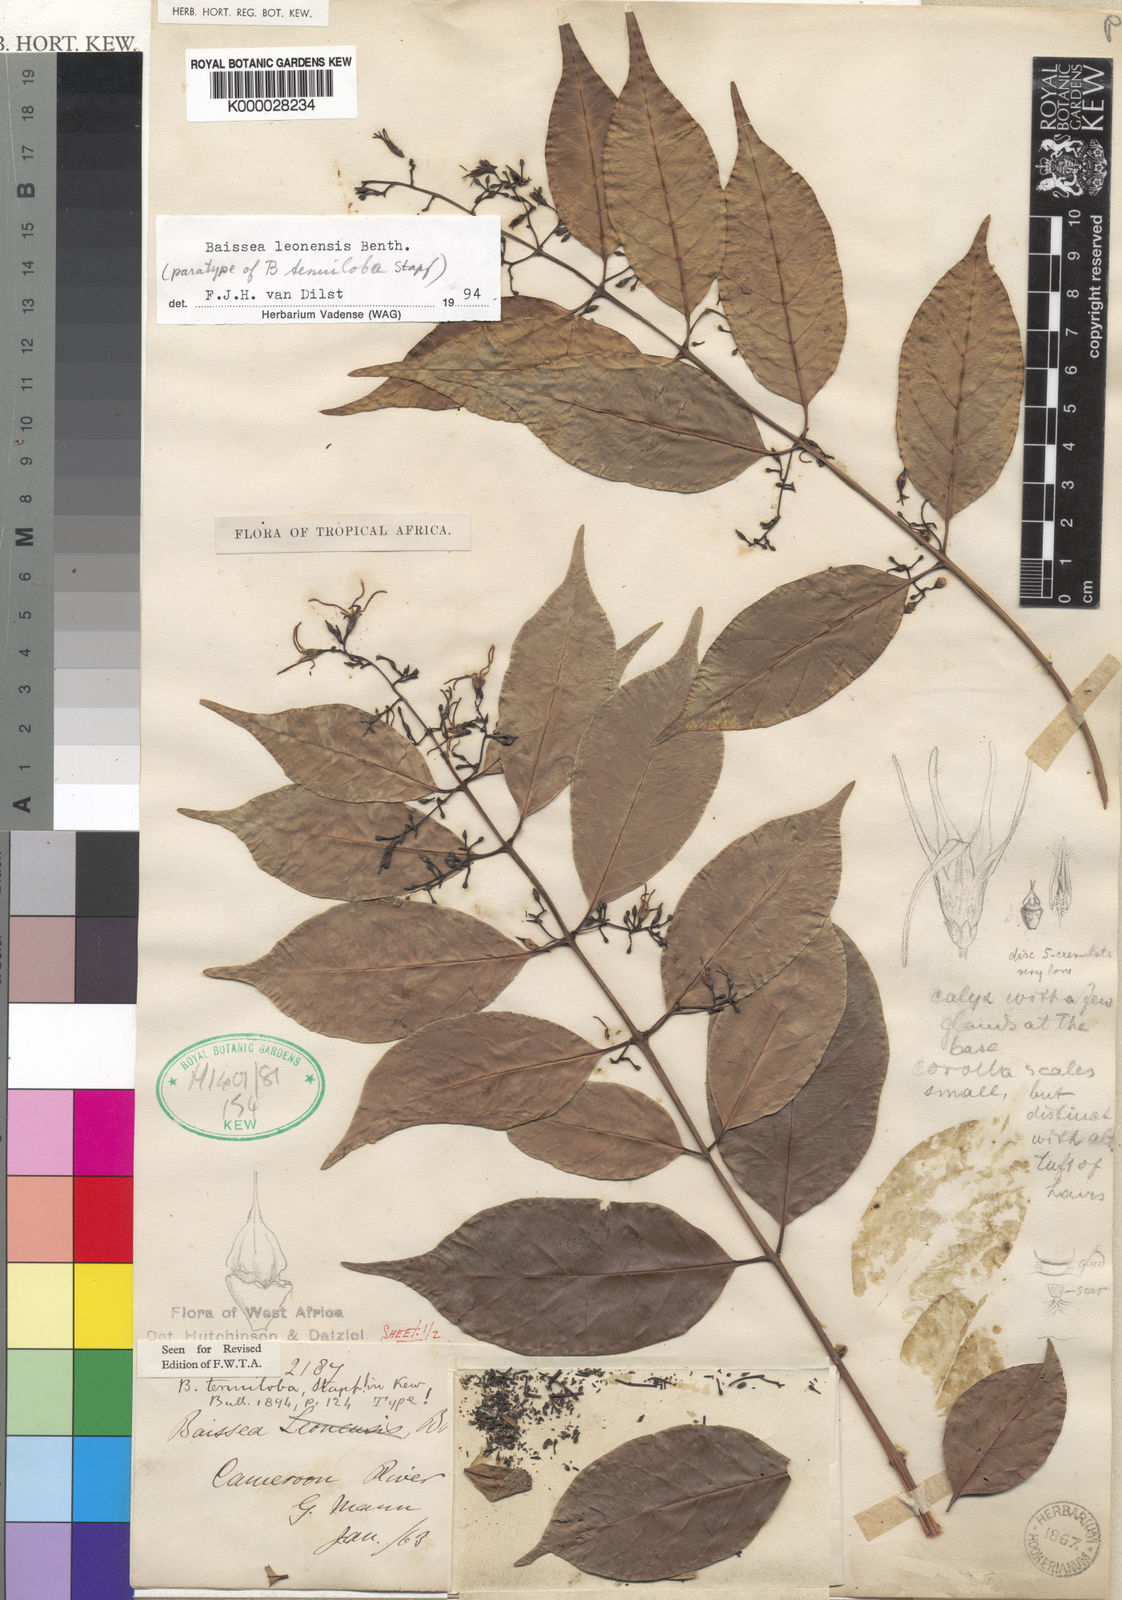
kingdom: Plantae
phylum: Tracheophyta
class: Magnoliopsida
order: Gentianales
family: Apocynaceae
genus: Baissea
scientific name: Baissea leonensis
